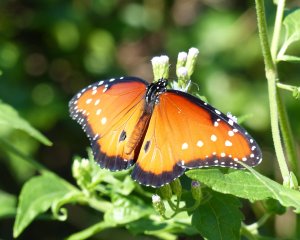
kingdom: Animalia
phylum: Arthropoda
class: Insecta
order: Lepidoptera
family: Nymphalidae
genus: Danaus
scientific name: Danaus gilippus
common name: Queen
